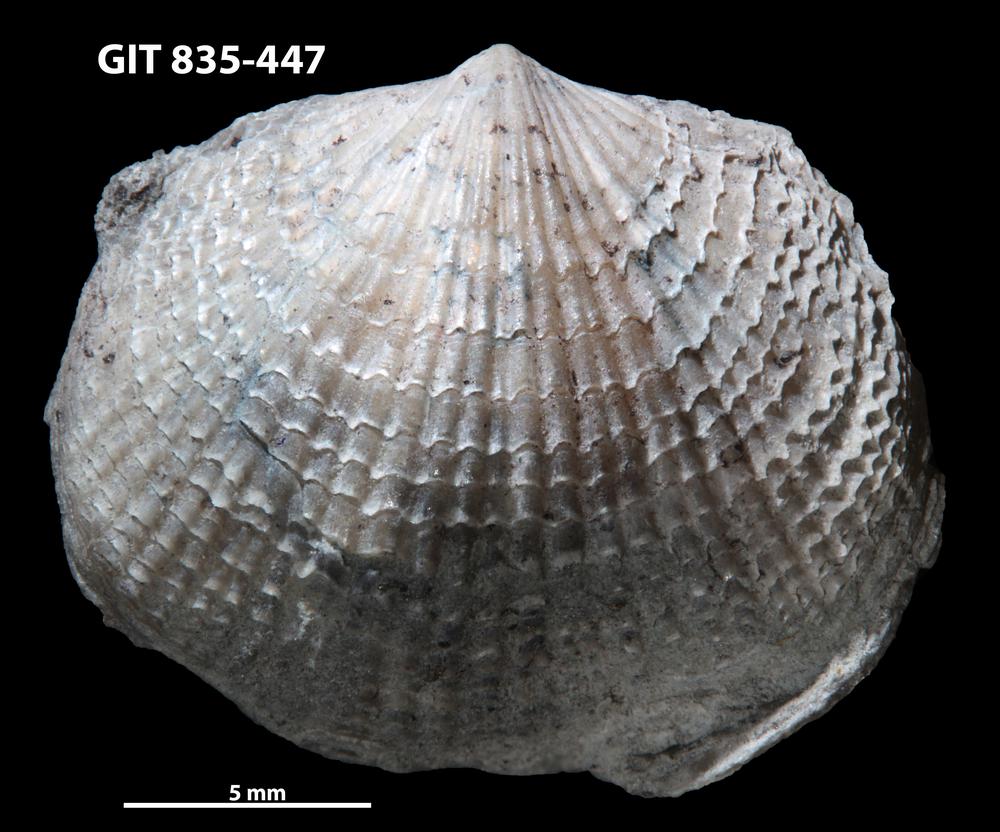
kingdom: Animalia
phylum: Brachiopoda
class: Rhynchonellata
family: Atrypidae
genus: Protatrypa
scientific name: Protatrypa malmoeyensis
